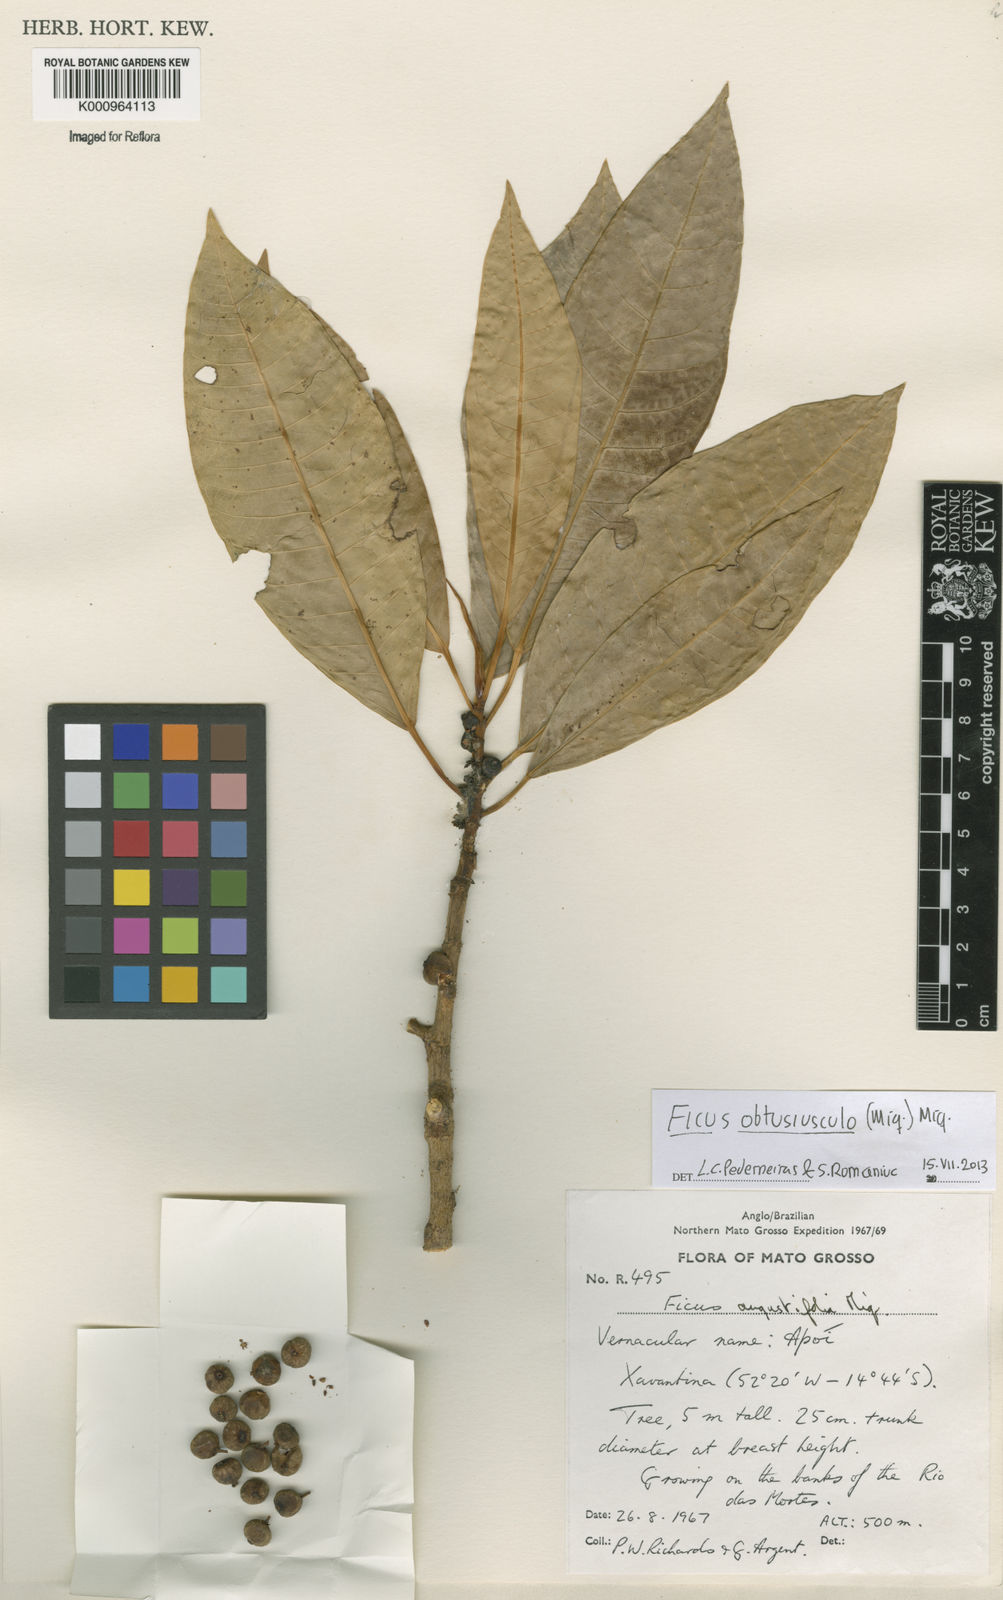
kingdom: Plantae
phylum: Tracheophyta
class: Magnoliopsida
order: Rosales
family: Moraceae
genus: Ficus
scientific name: Ficus obtusiuscula
